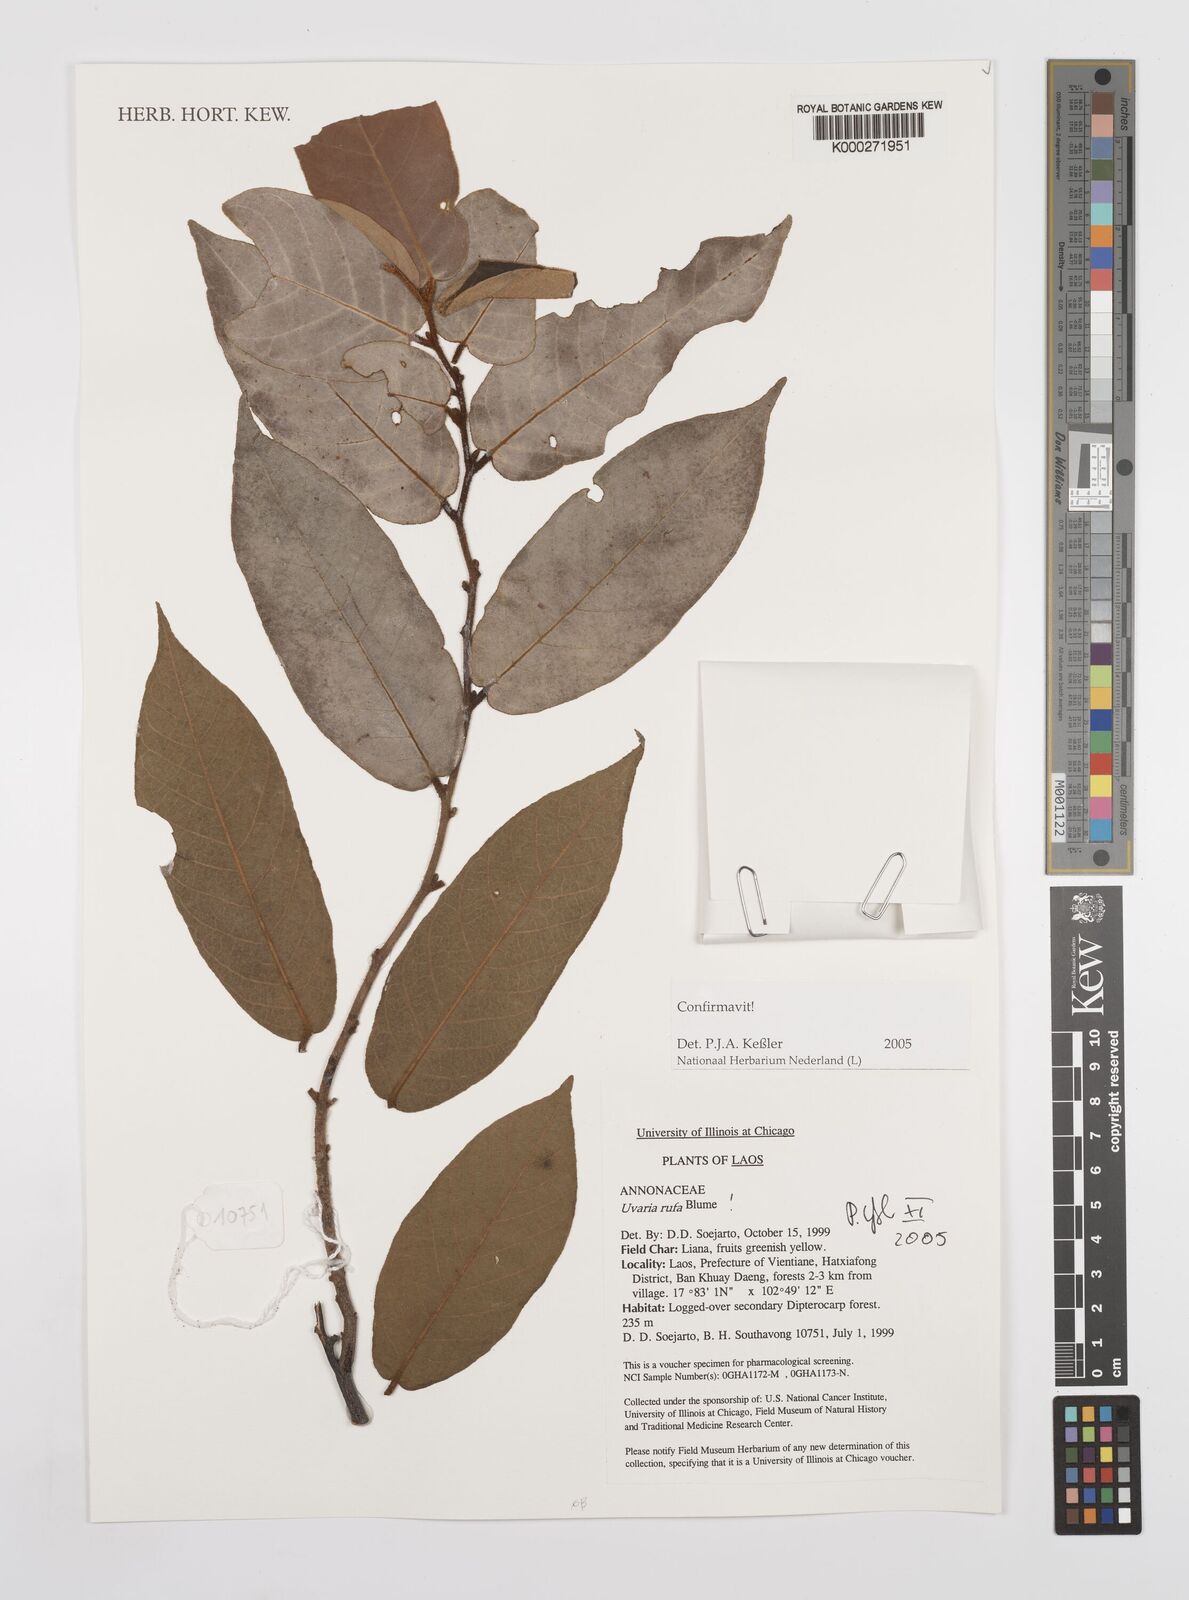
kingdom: Plantae
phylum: Tracheophyta
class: Magnoliopsida
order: Magnoliales
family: Annonaceae
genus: Uvaria
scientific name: Uvaria rufa
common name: Torres strait scrambler
